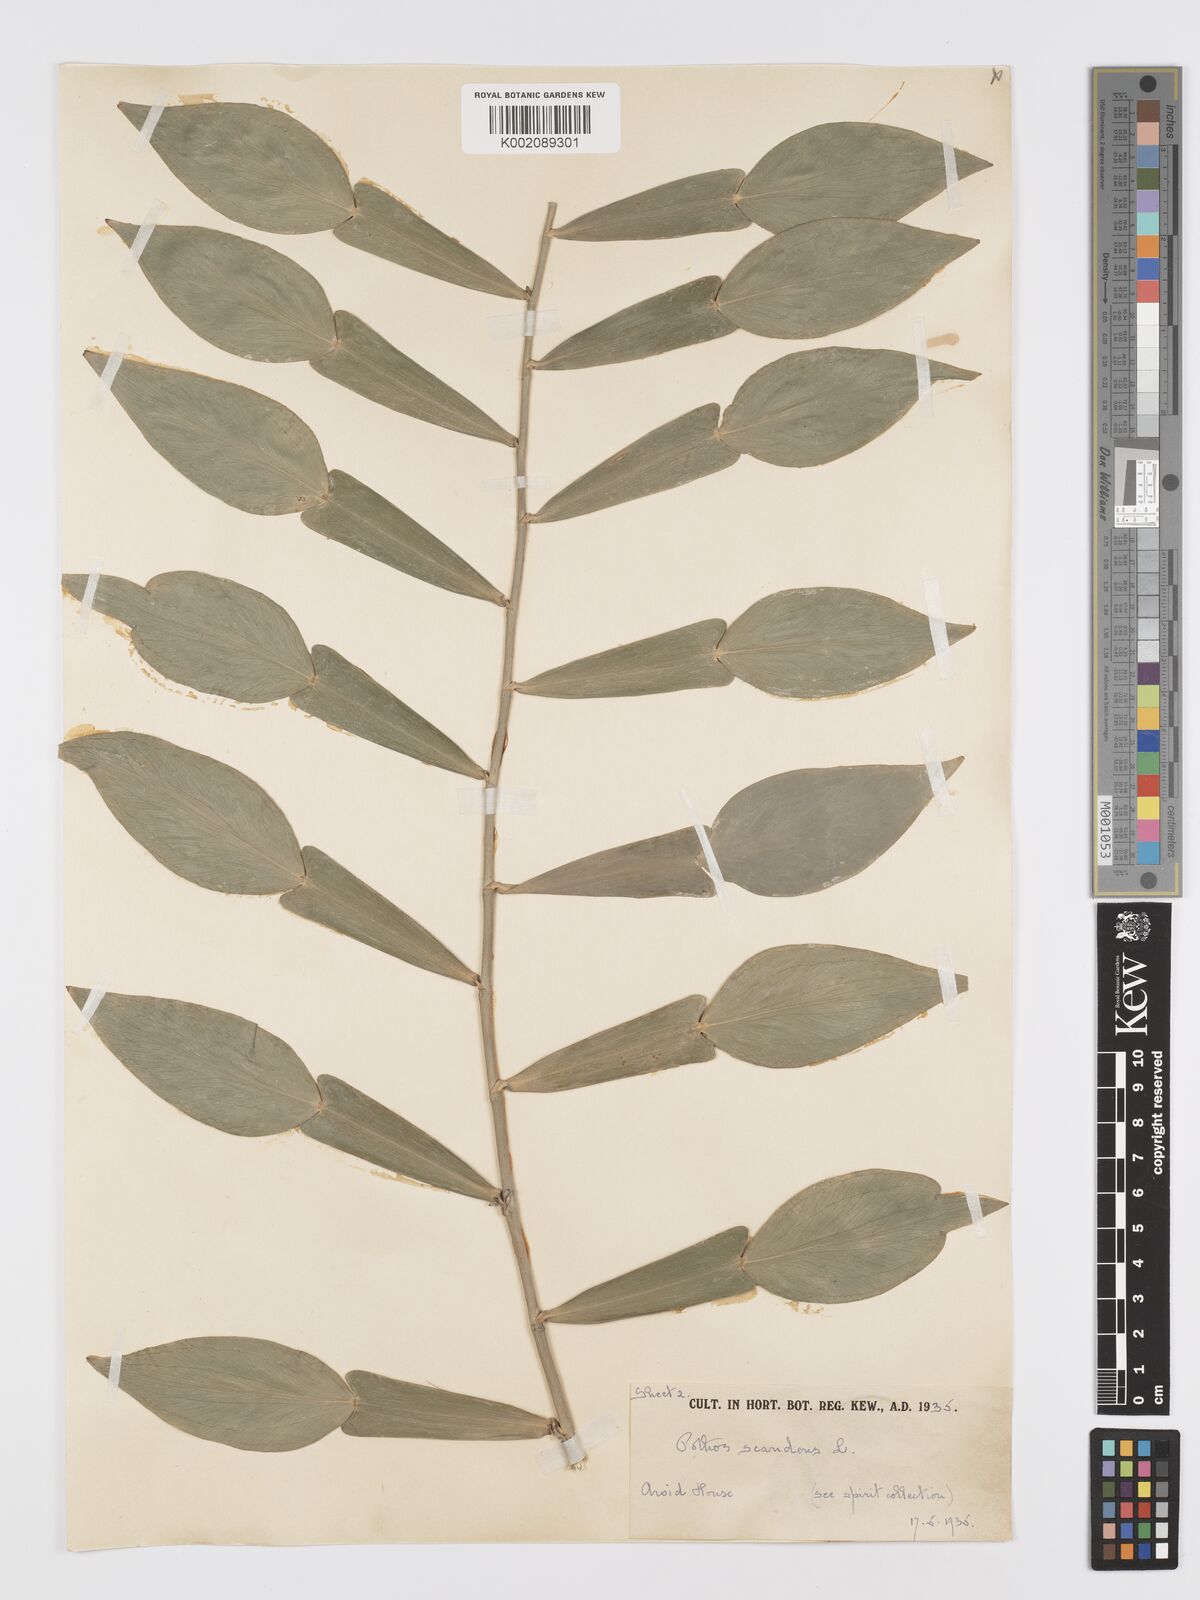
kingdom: Plantae
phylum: Tracheophyta
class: Liliopsida
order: Alismatales
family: Araceae
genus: Pothos
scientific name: Pothos scandens
